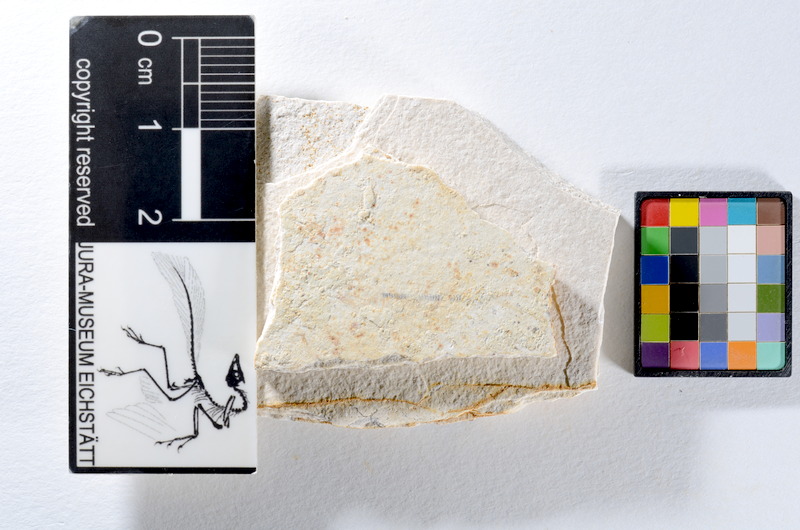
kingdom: Animalia
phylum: Chordata
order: Salmoniformes
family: Orthogonikleithridae
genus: Orthogonikleithrus
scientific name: Orthogonikleithrus hoelli
